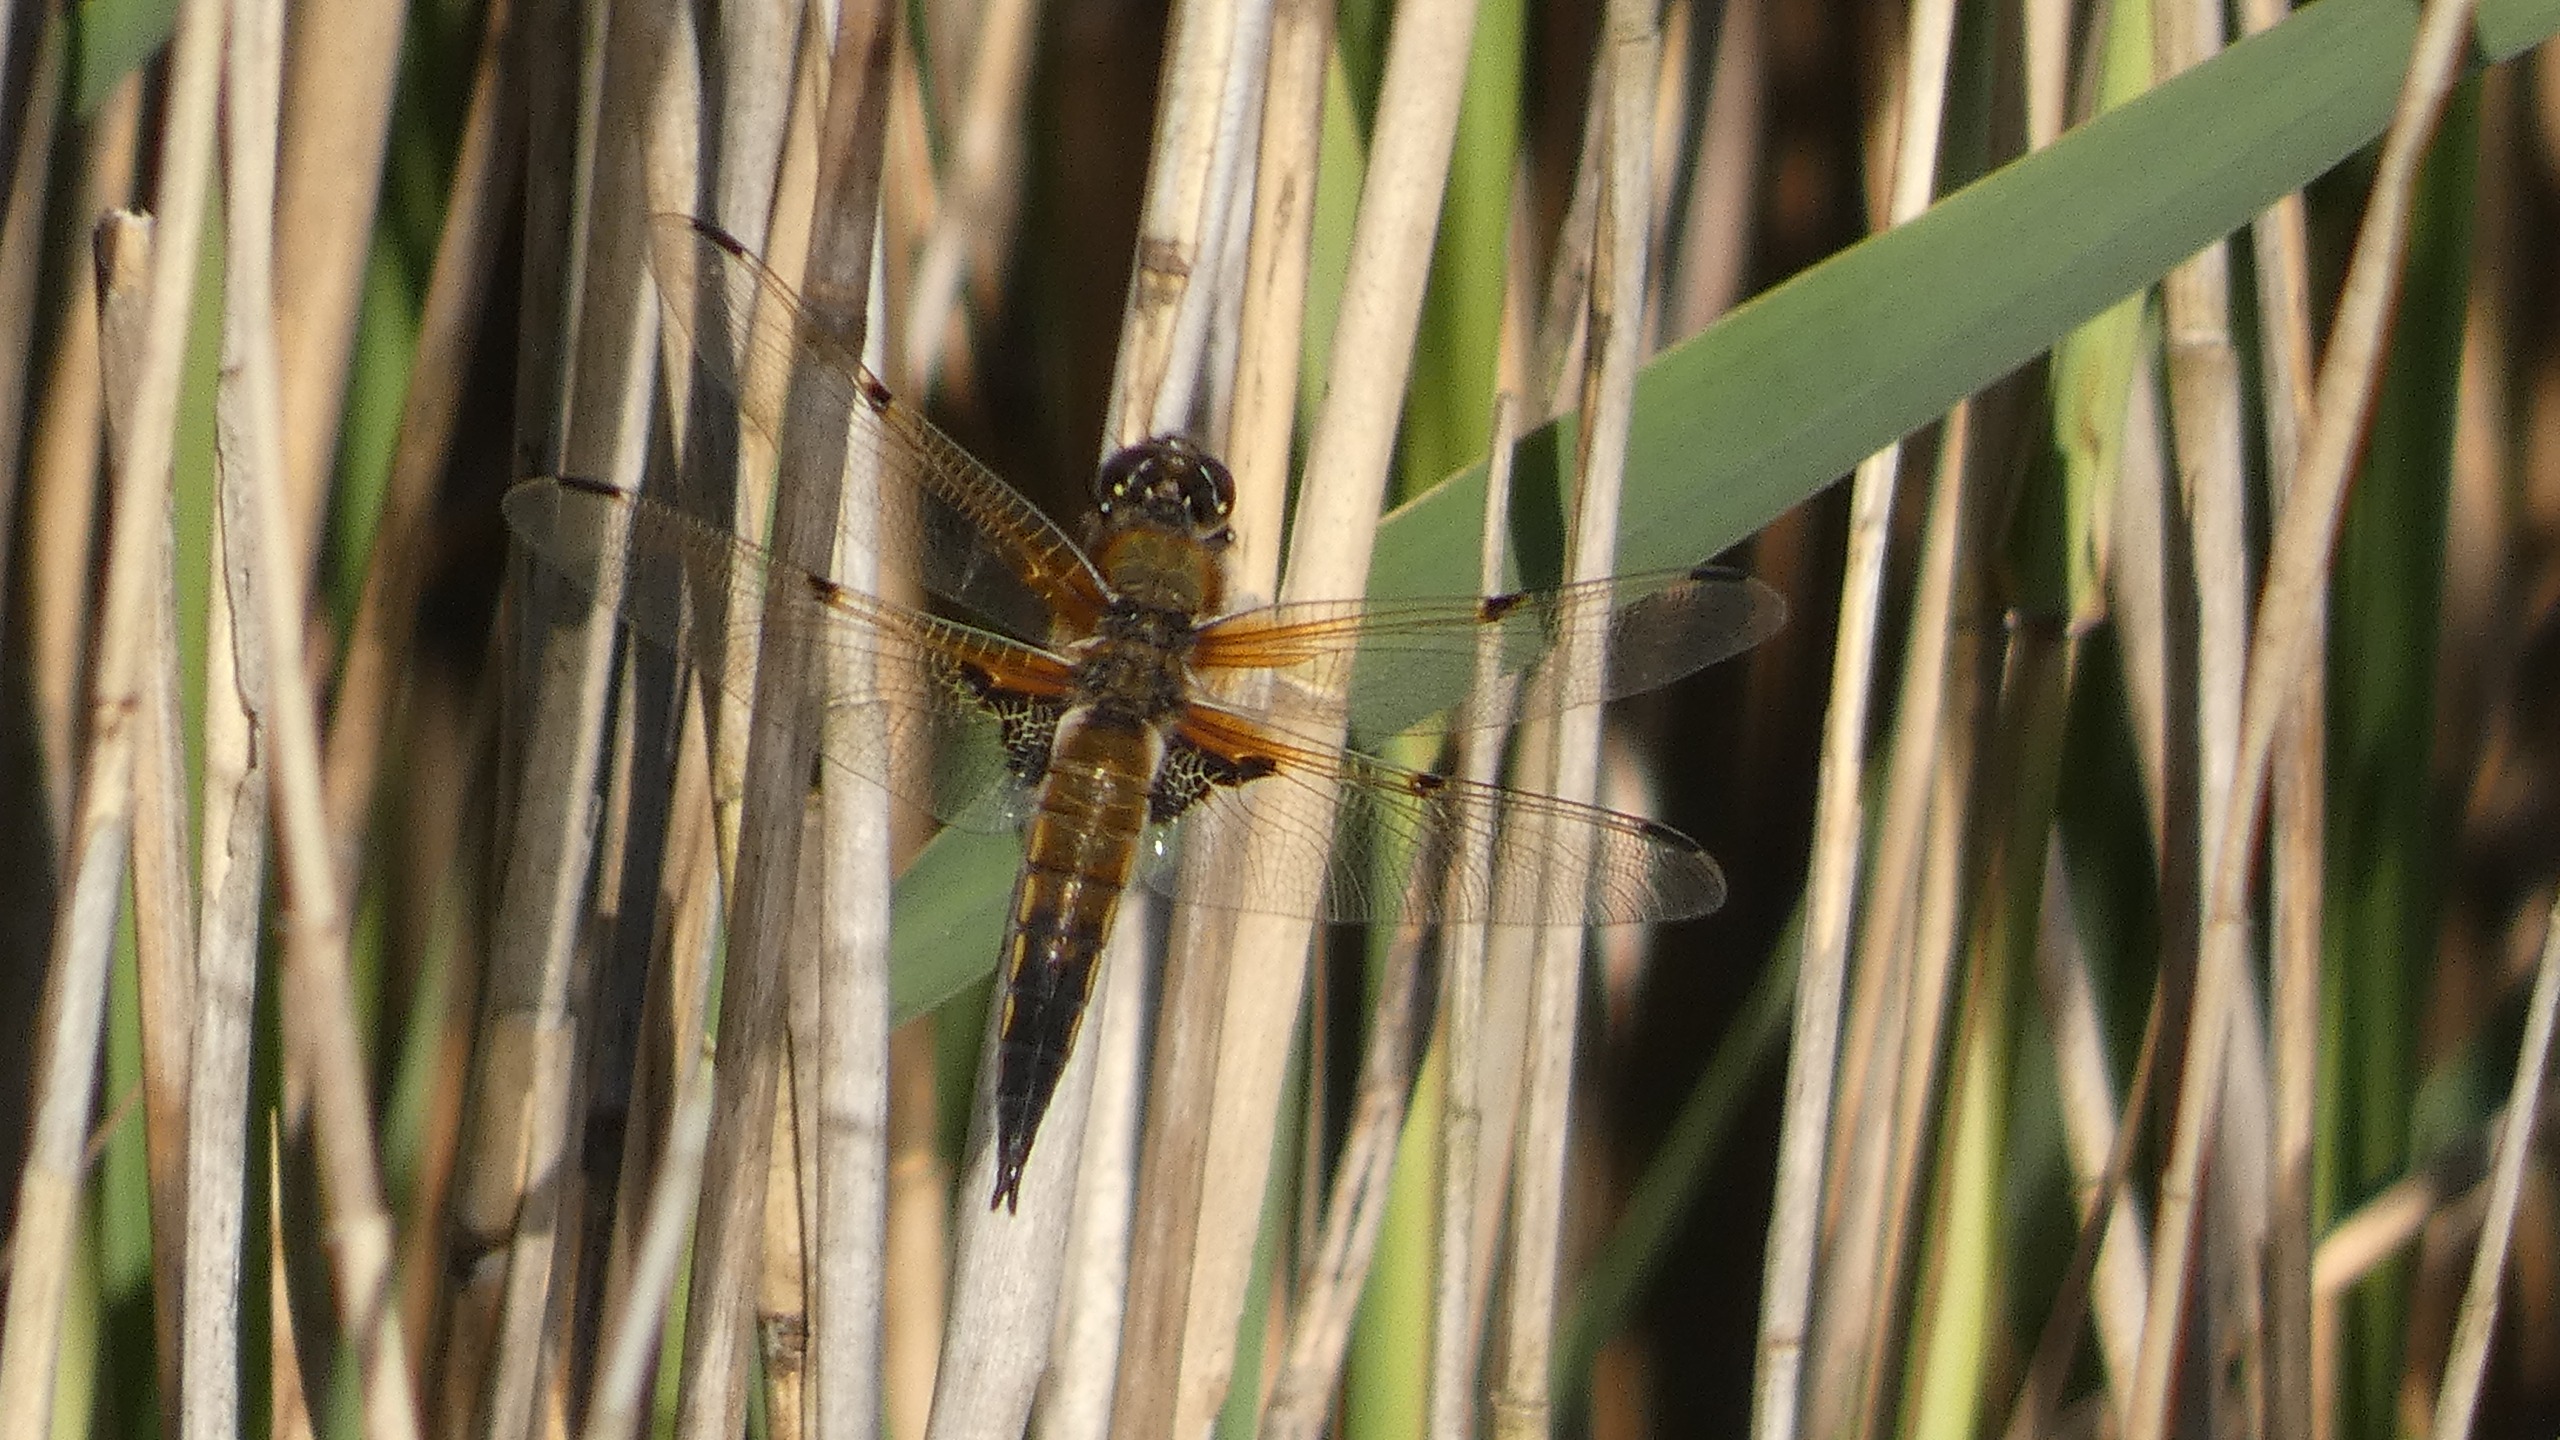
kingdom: Animalia
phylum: Arthropoda
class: Insecta
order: Odonata
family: Libellulidae
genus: Libellula
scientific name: Libellula quadrimaculata
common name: Fireplettet libel
